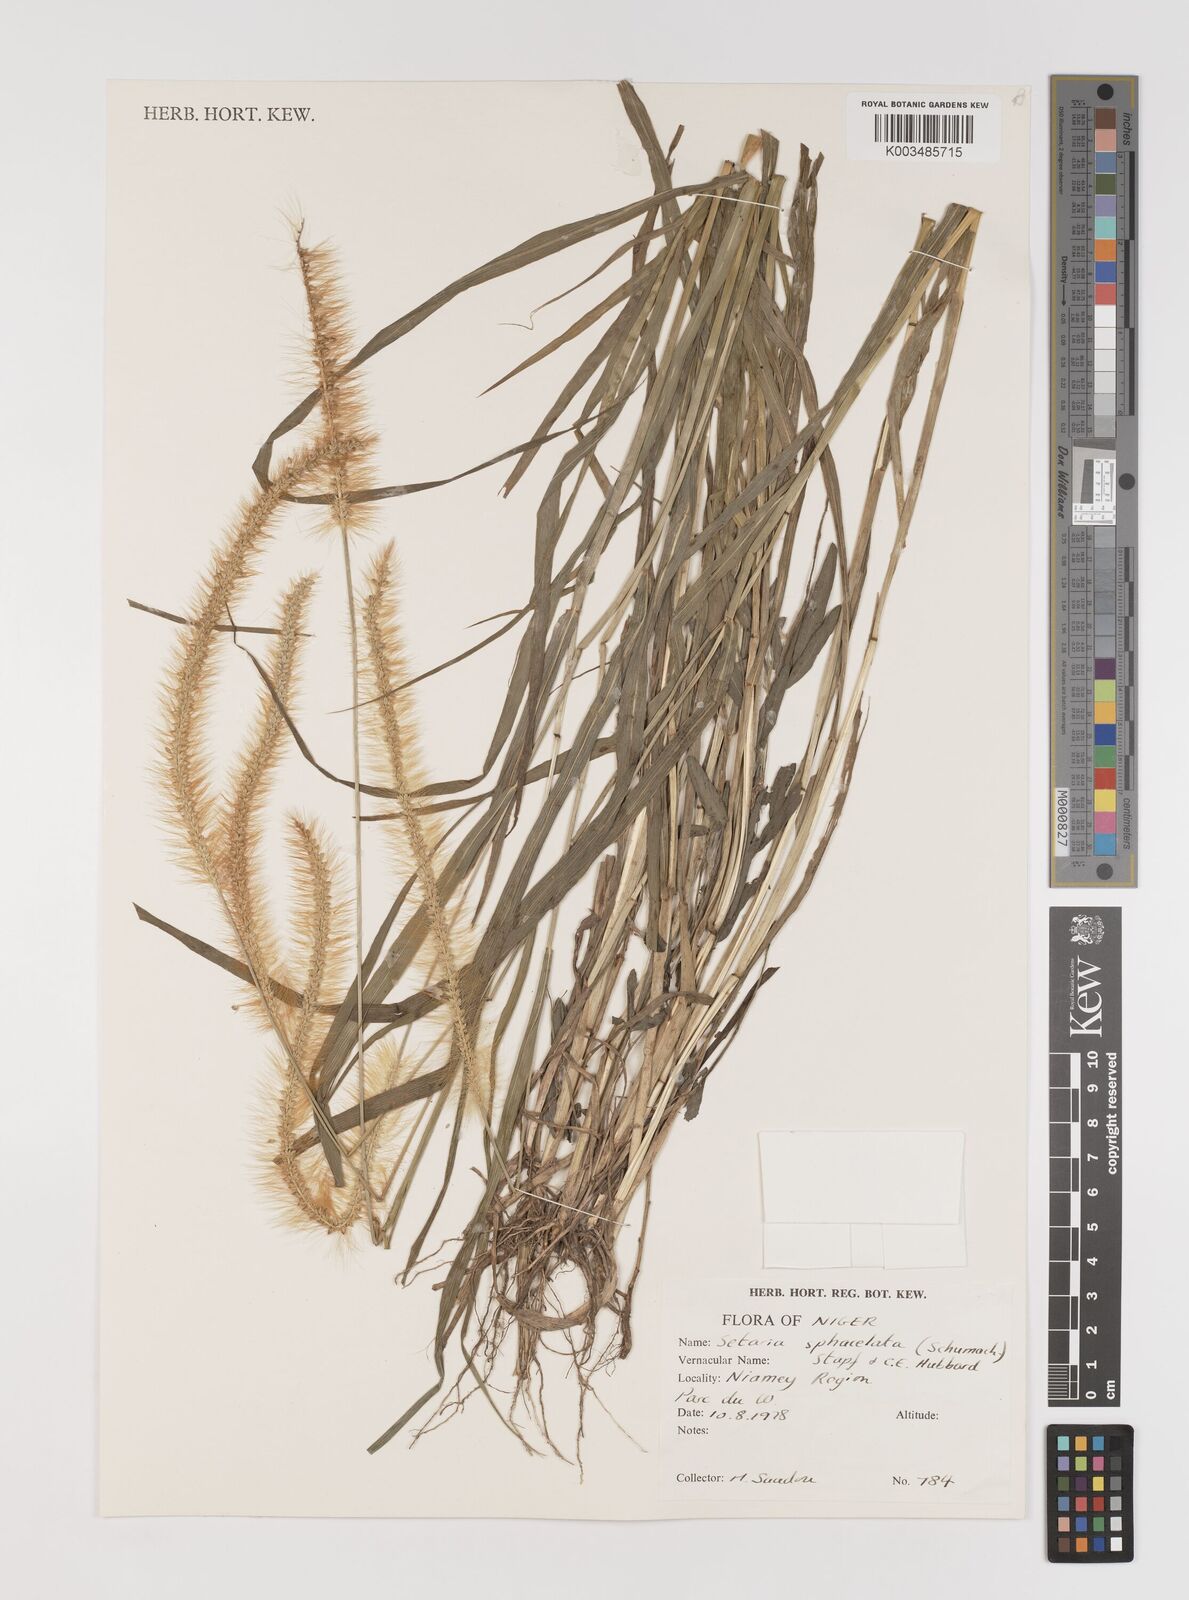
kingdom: Plantae
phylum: Tracheophyta
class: Liliopsida
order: Poales
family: Poaceae
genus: Setaria
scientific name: Setaria sphacelata
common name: African bristlegrass
